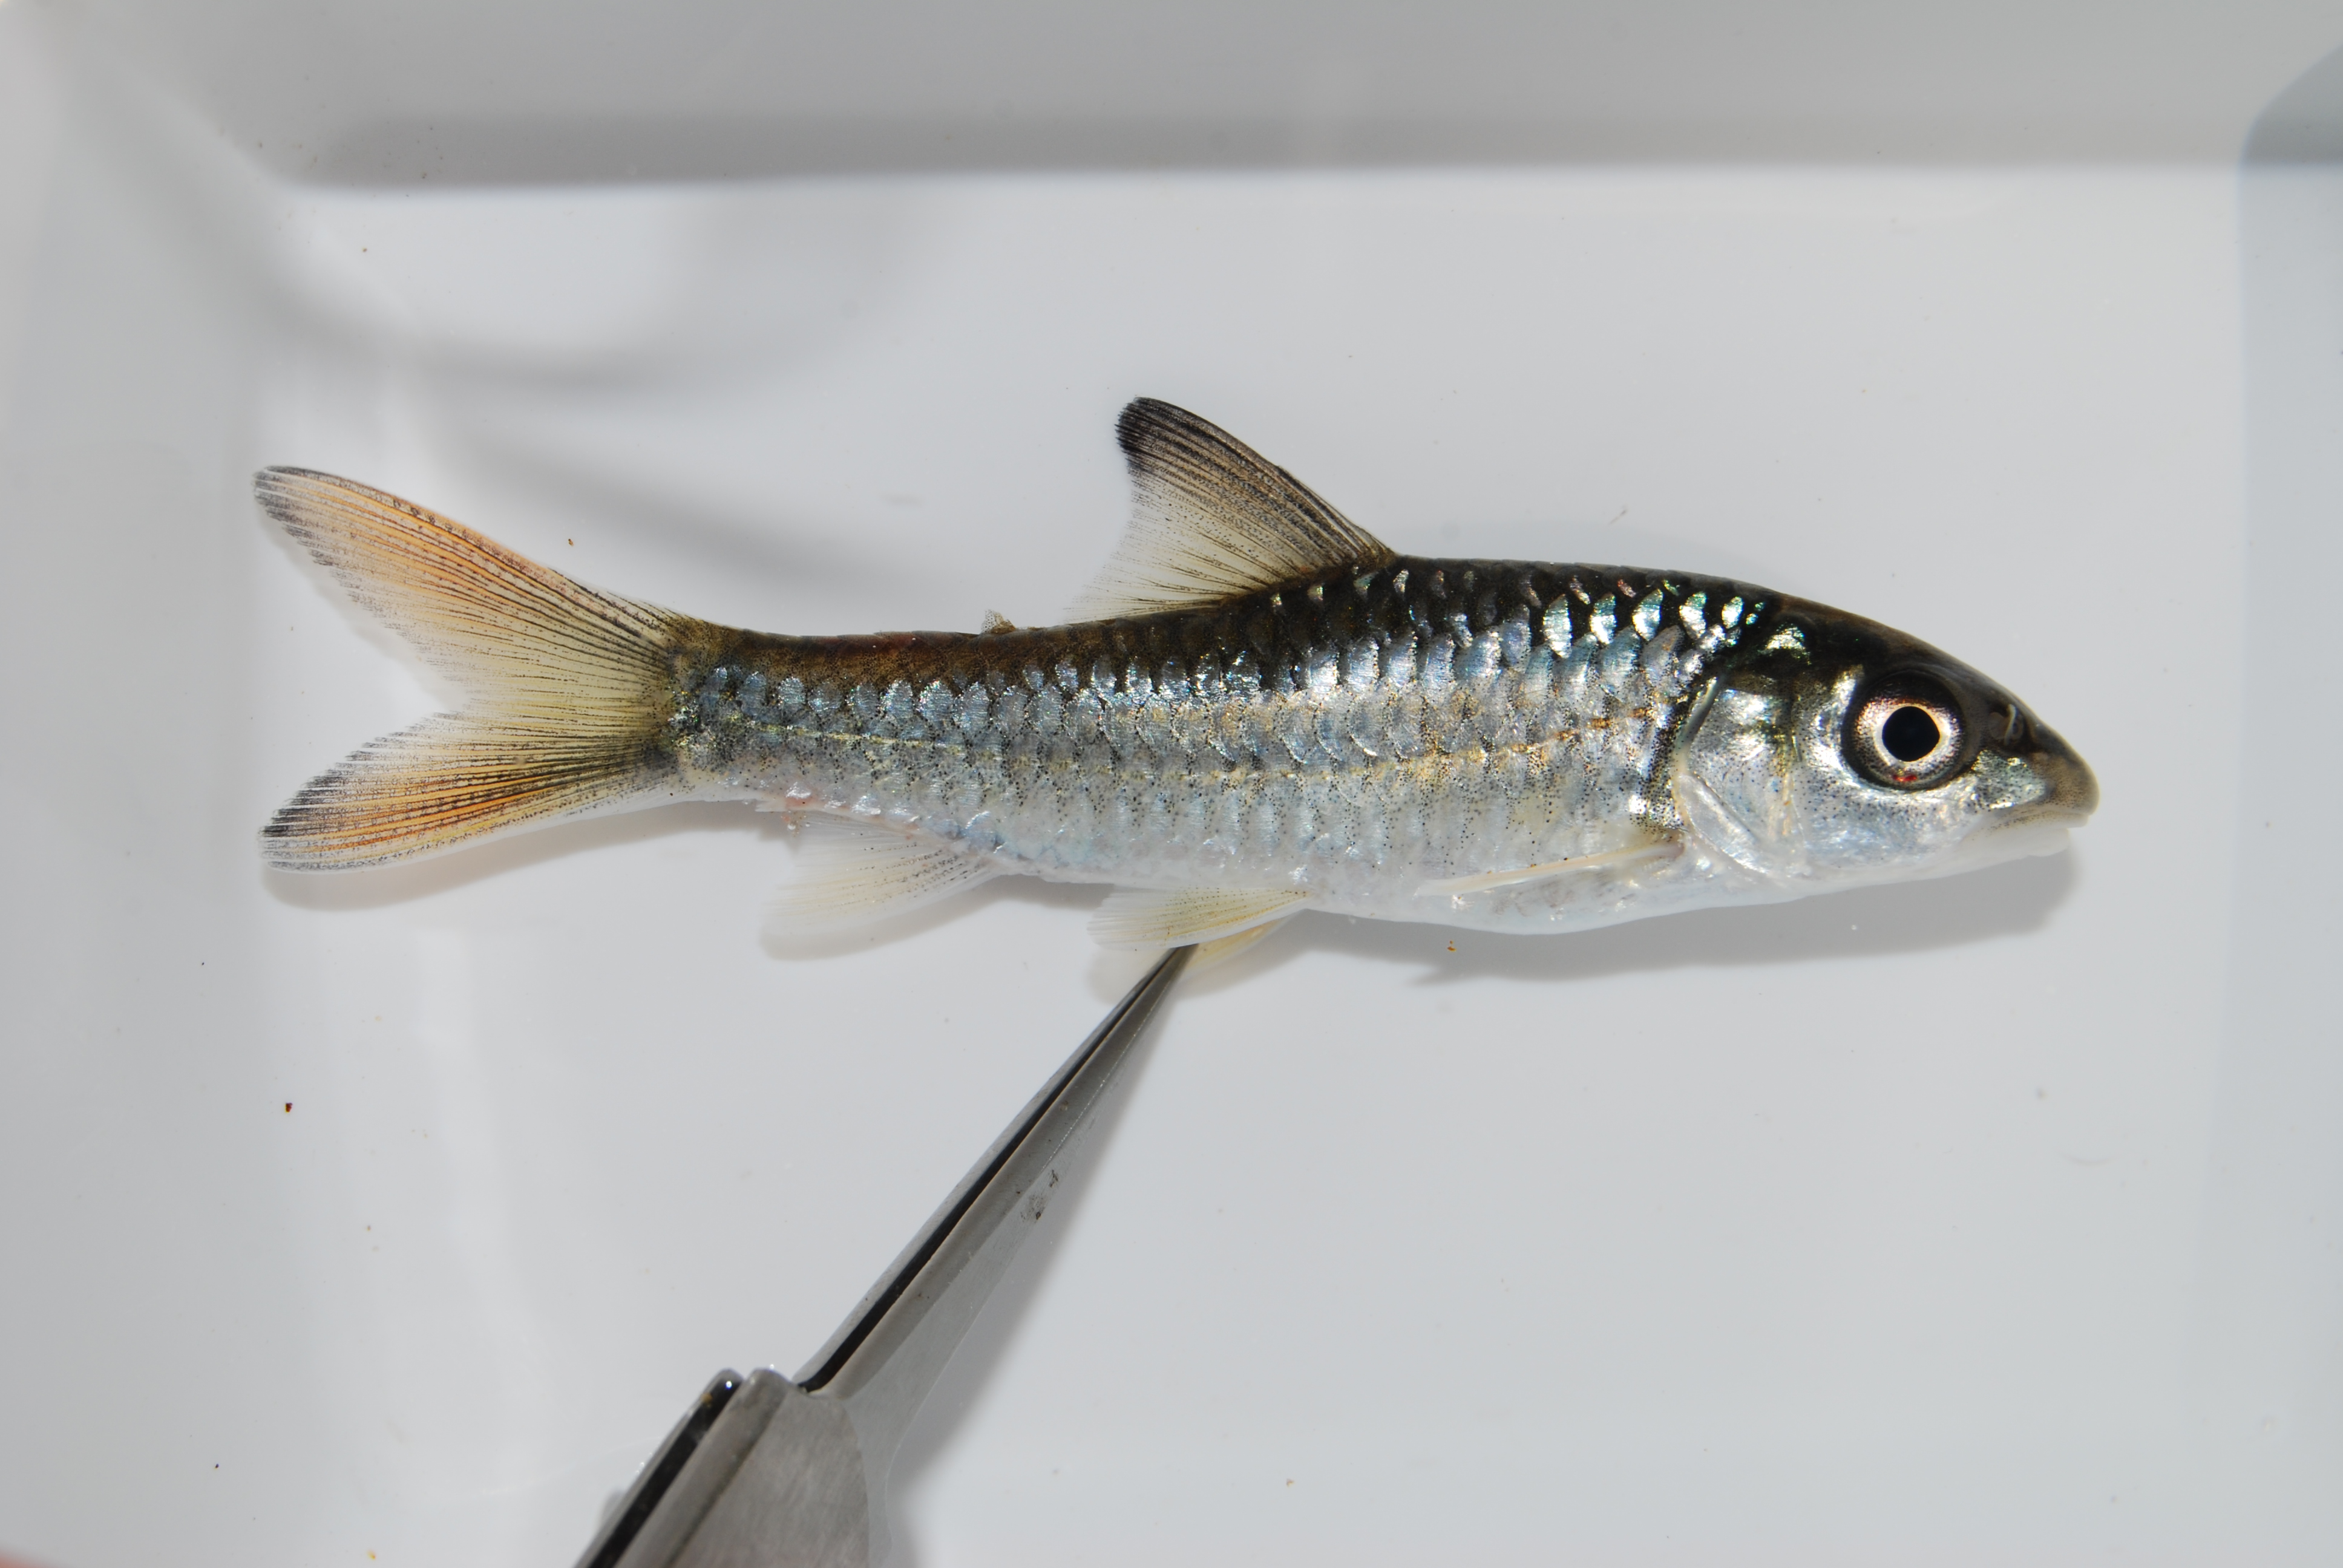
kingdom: Animalia
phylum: Chordata
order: Cypriniformes
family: Cyprinidae
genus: Varicorhinus
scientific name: Varicorhinus
